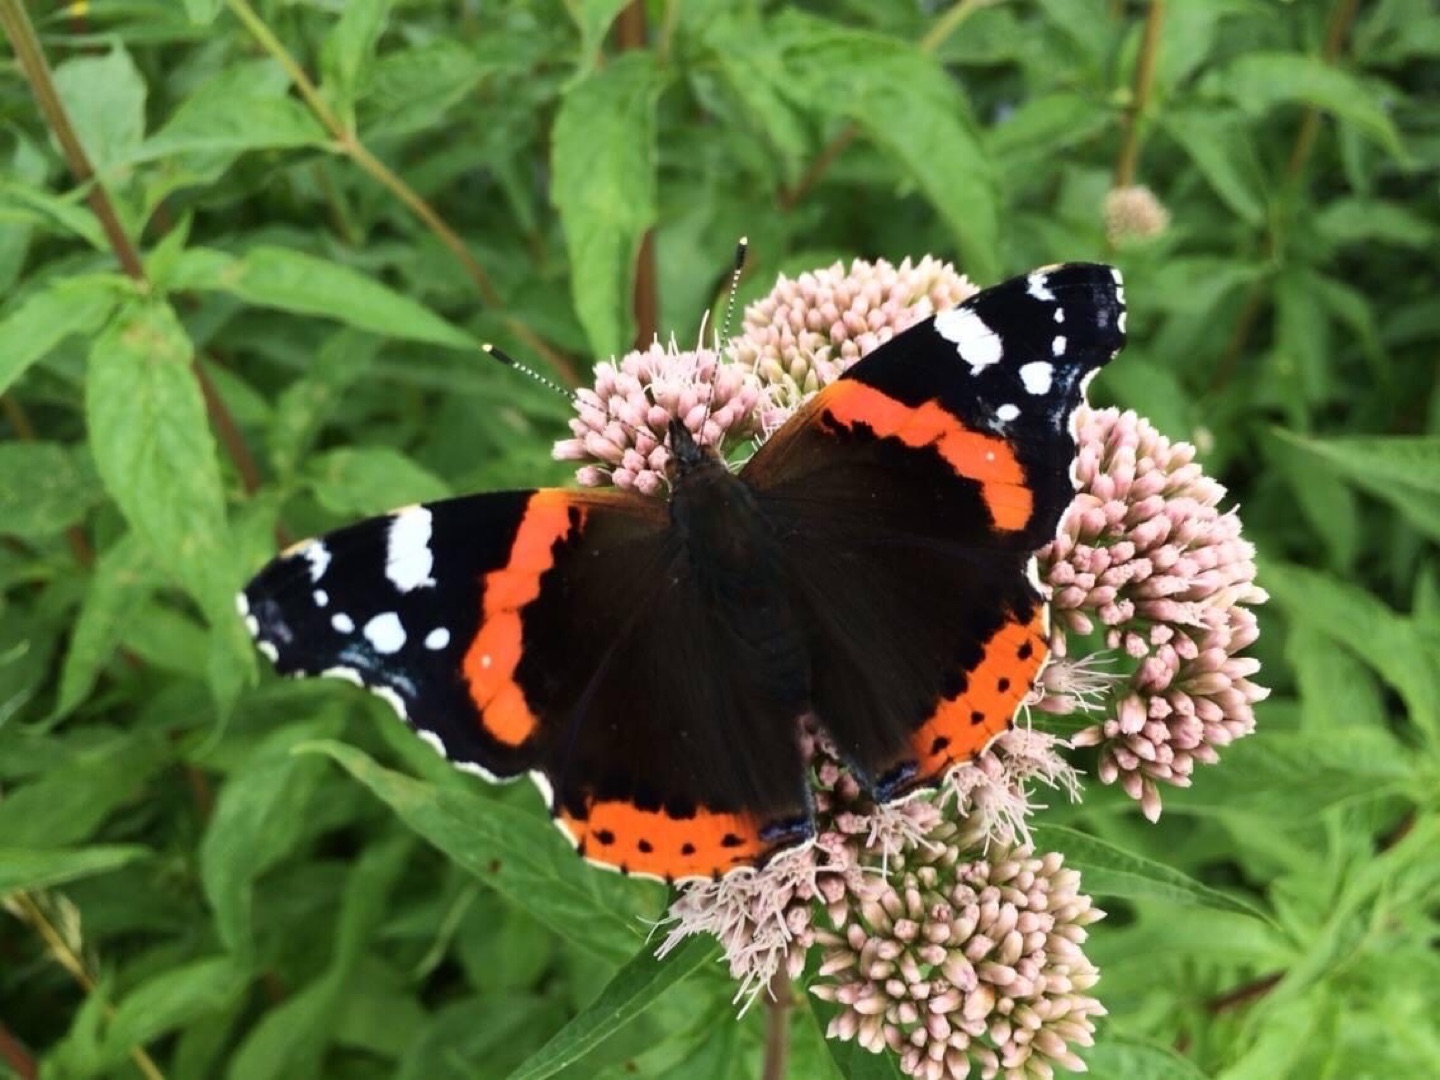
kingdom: Animalia
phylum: Arthropoda
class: Insecta
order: Lepidoptera
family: Nymphalidae
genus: Vanessa
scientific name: Vanessa atalanta
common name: Admiral
